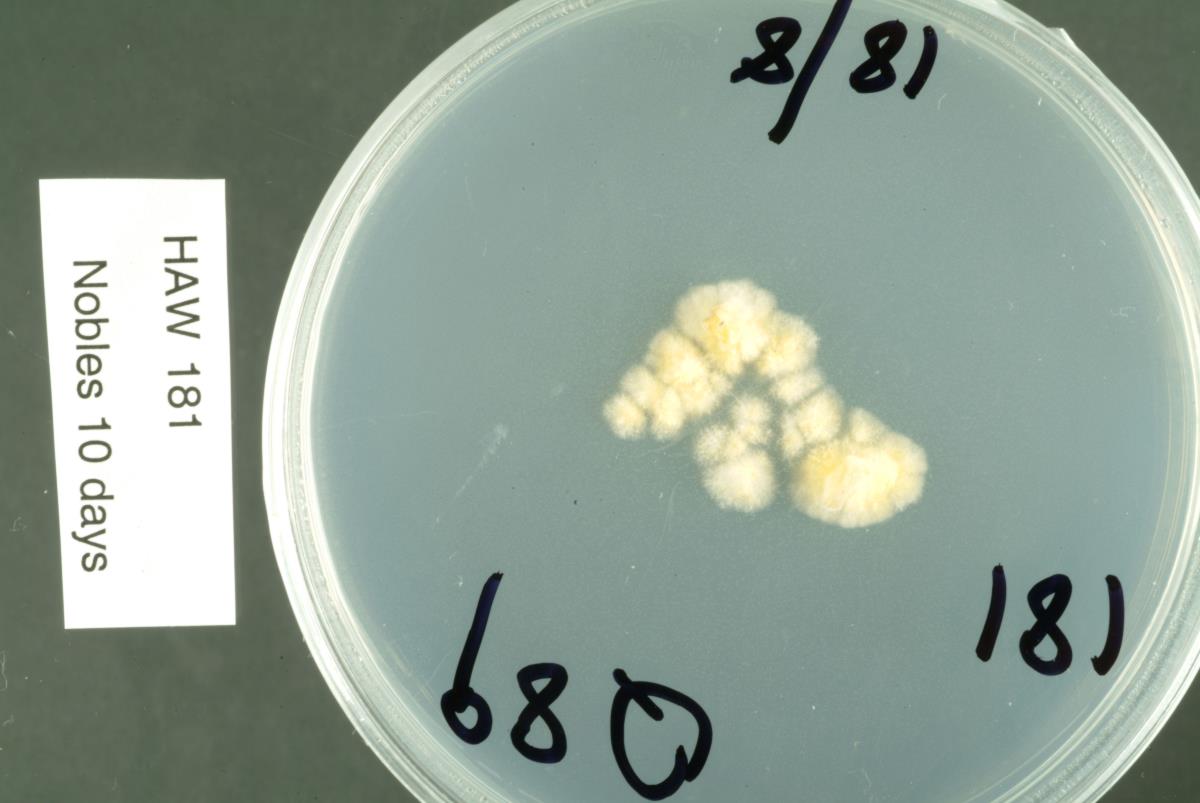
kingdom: Fungi
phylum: Ascomycota
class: Leotiomycetes
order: Rhytismatales
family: Rhytismataceae
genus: Coccomyces
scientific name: Coccomyces radiatus
